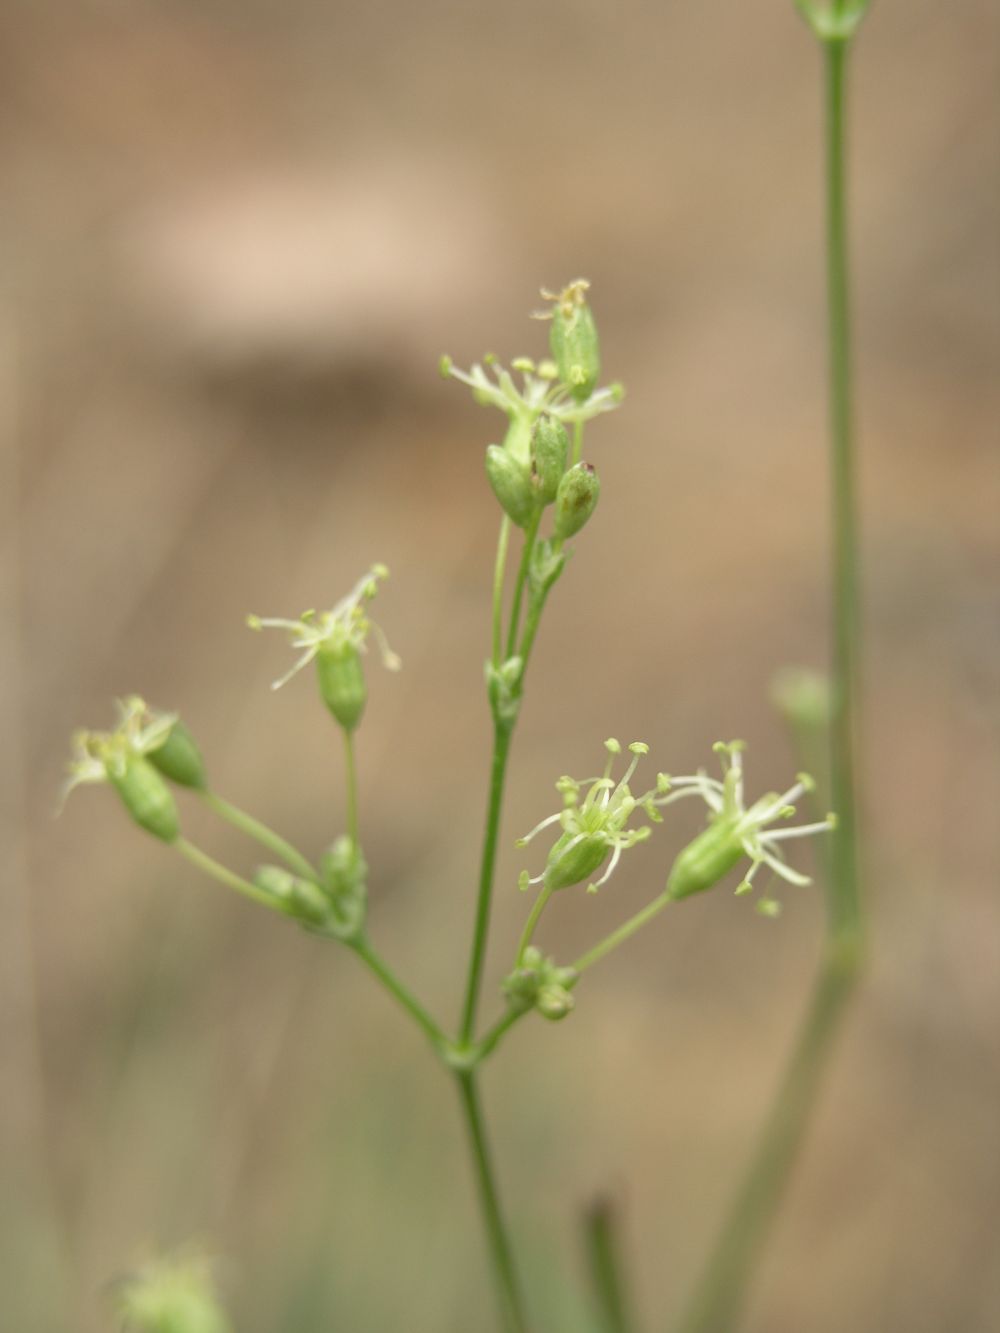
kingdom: Plantae
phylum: Tracheophyta
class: Magnoliopsida
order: Caryophyllales
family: Caryophyllaceae
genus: Silene
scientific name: Silene otites
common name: Spanish catchfly
